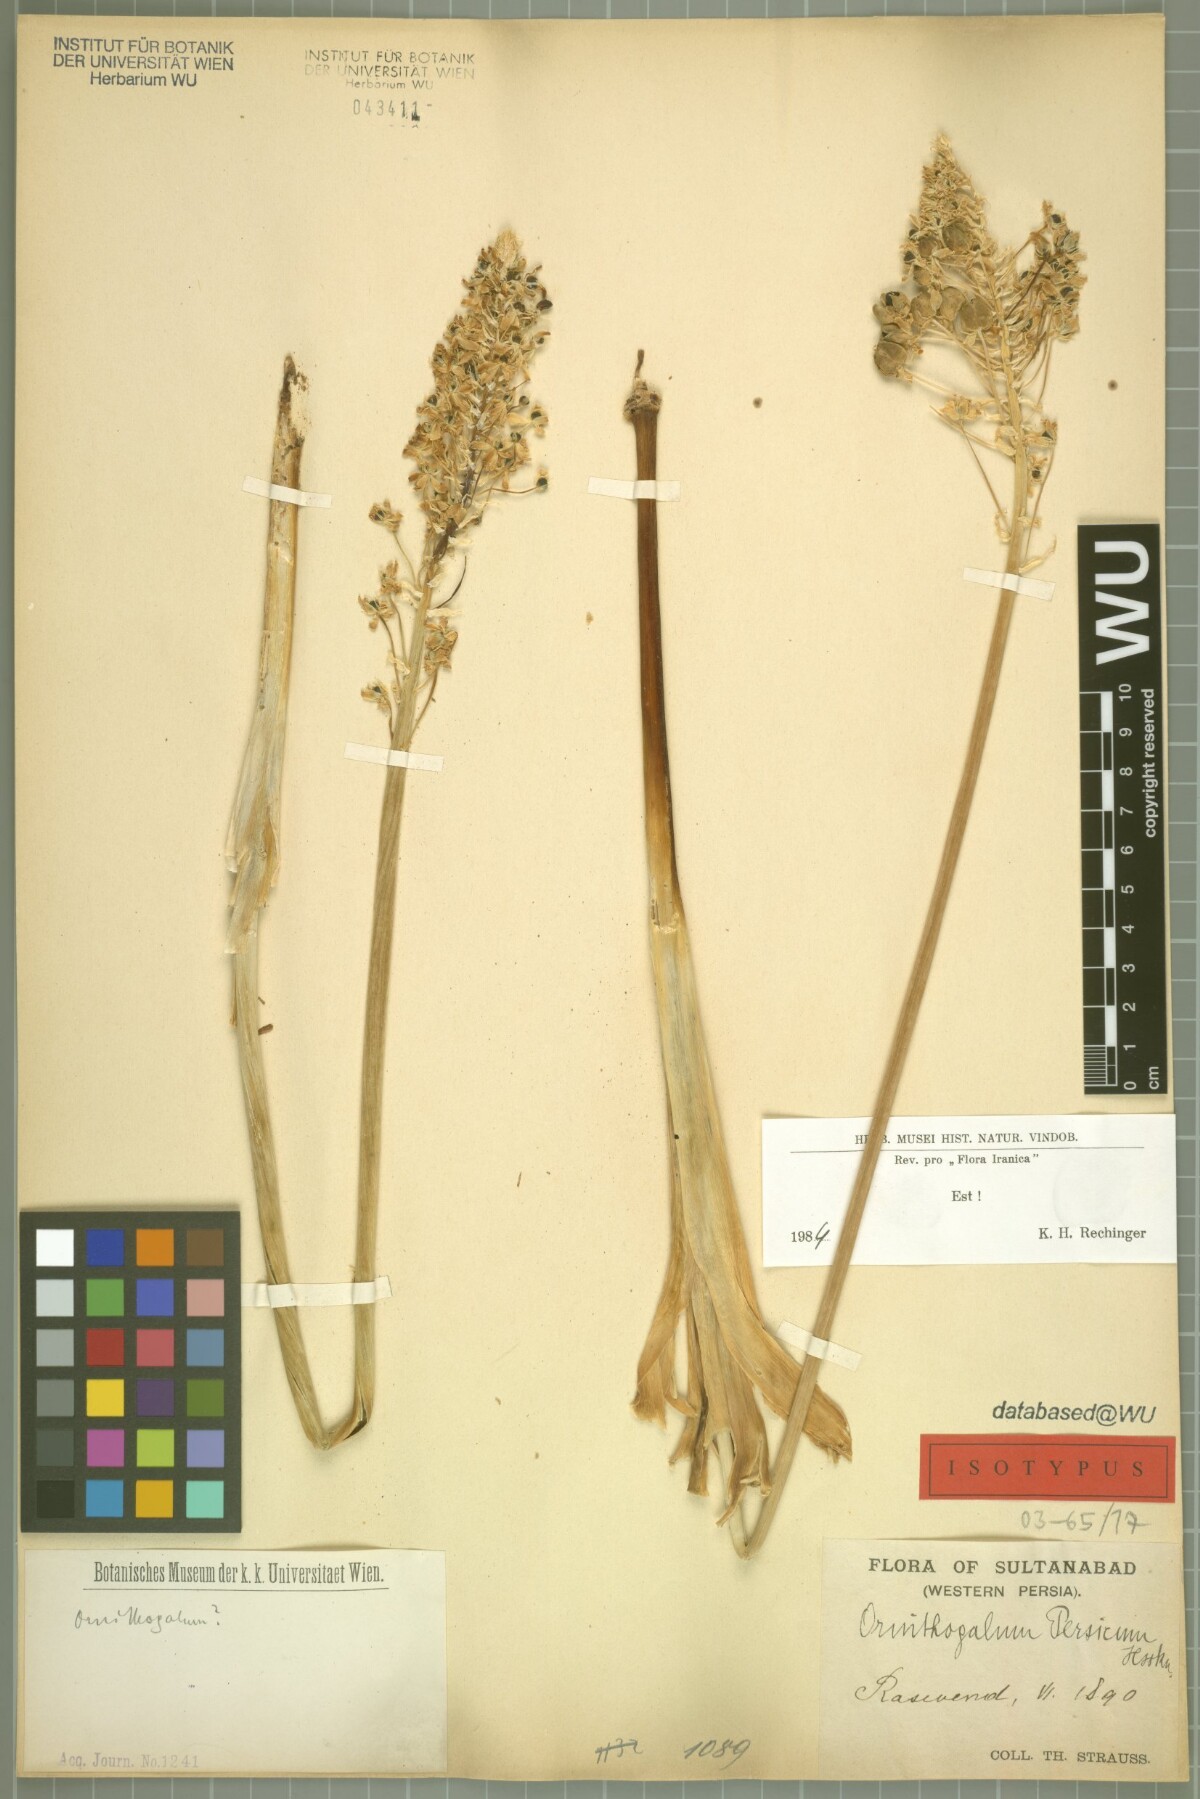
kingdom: Plantae
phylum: Tracheophyta
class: Liliopsida
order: Asparagales
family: Asparagaceae
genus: Ornithogalum
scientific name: Ornithogalum persicum
